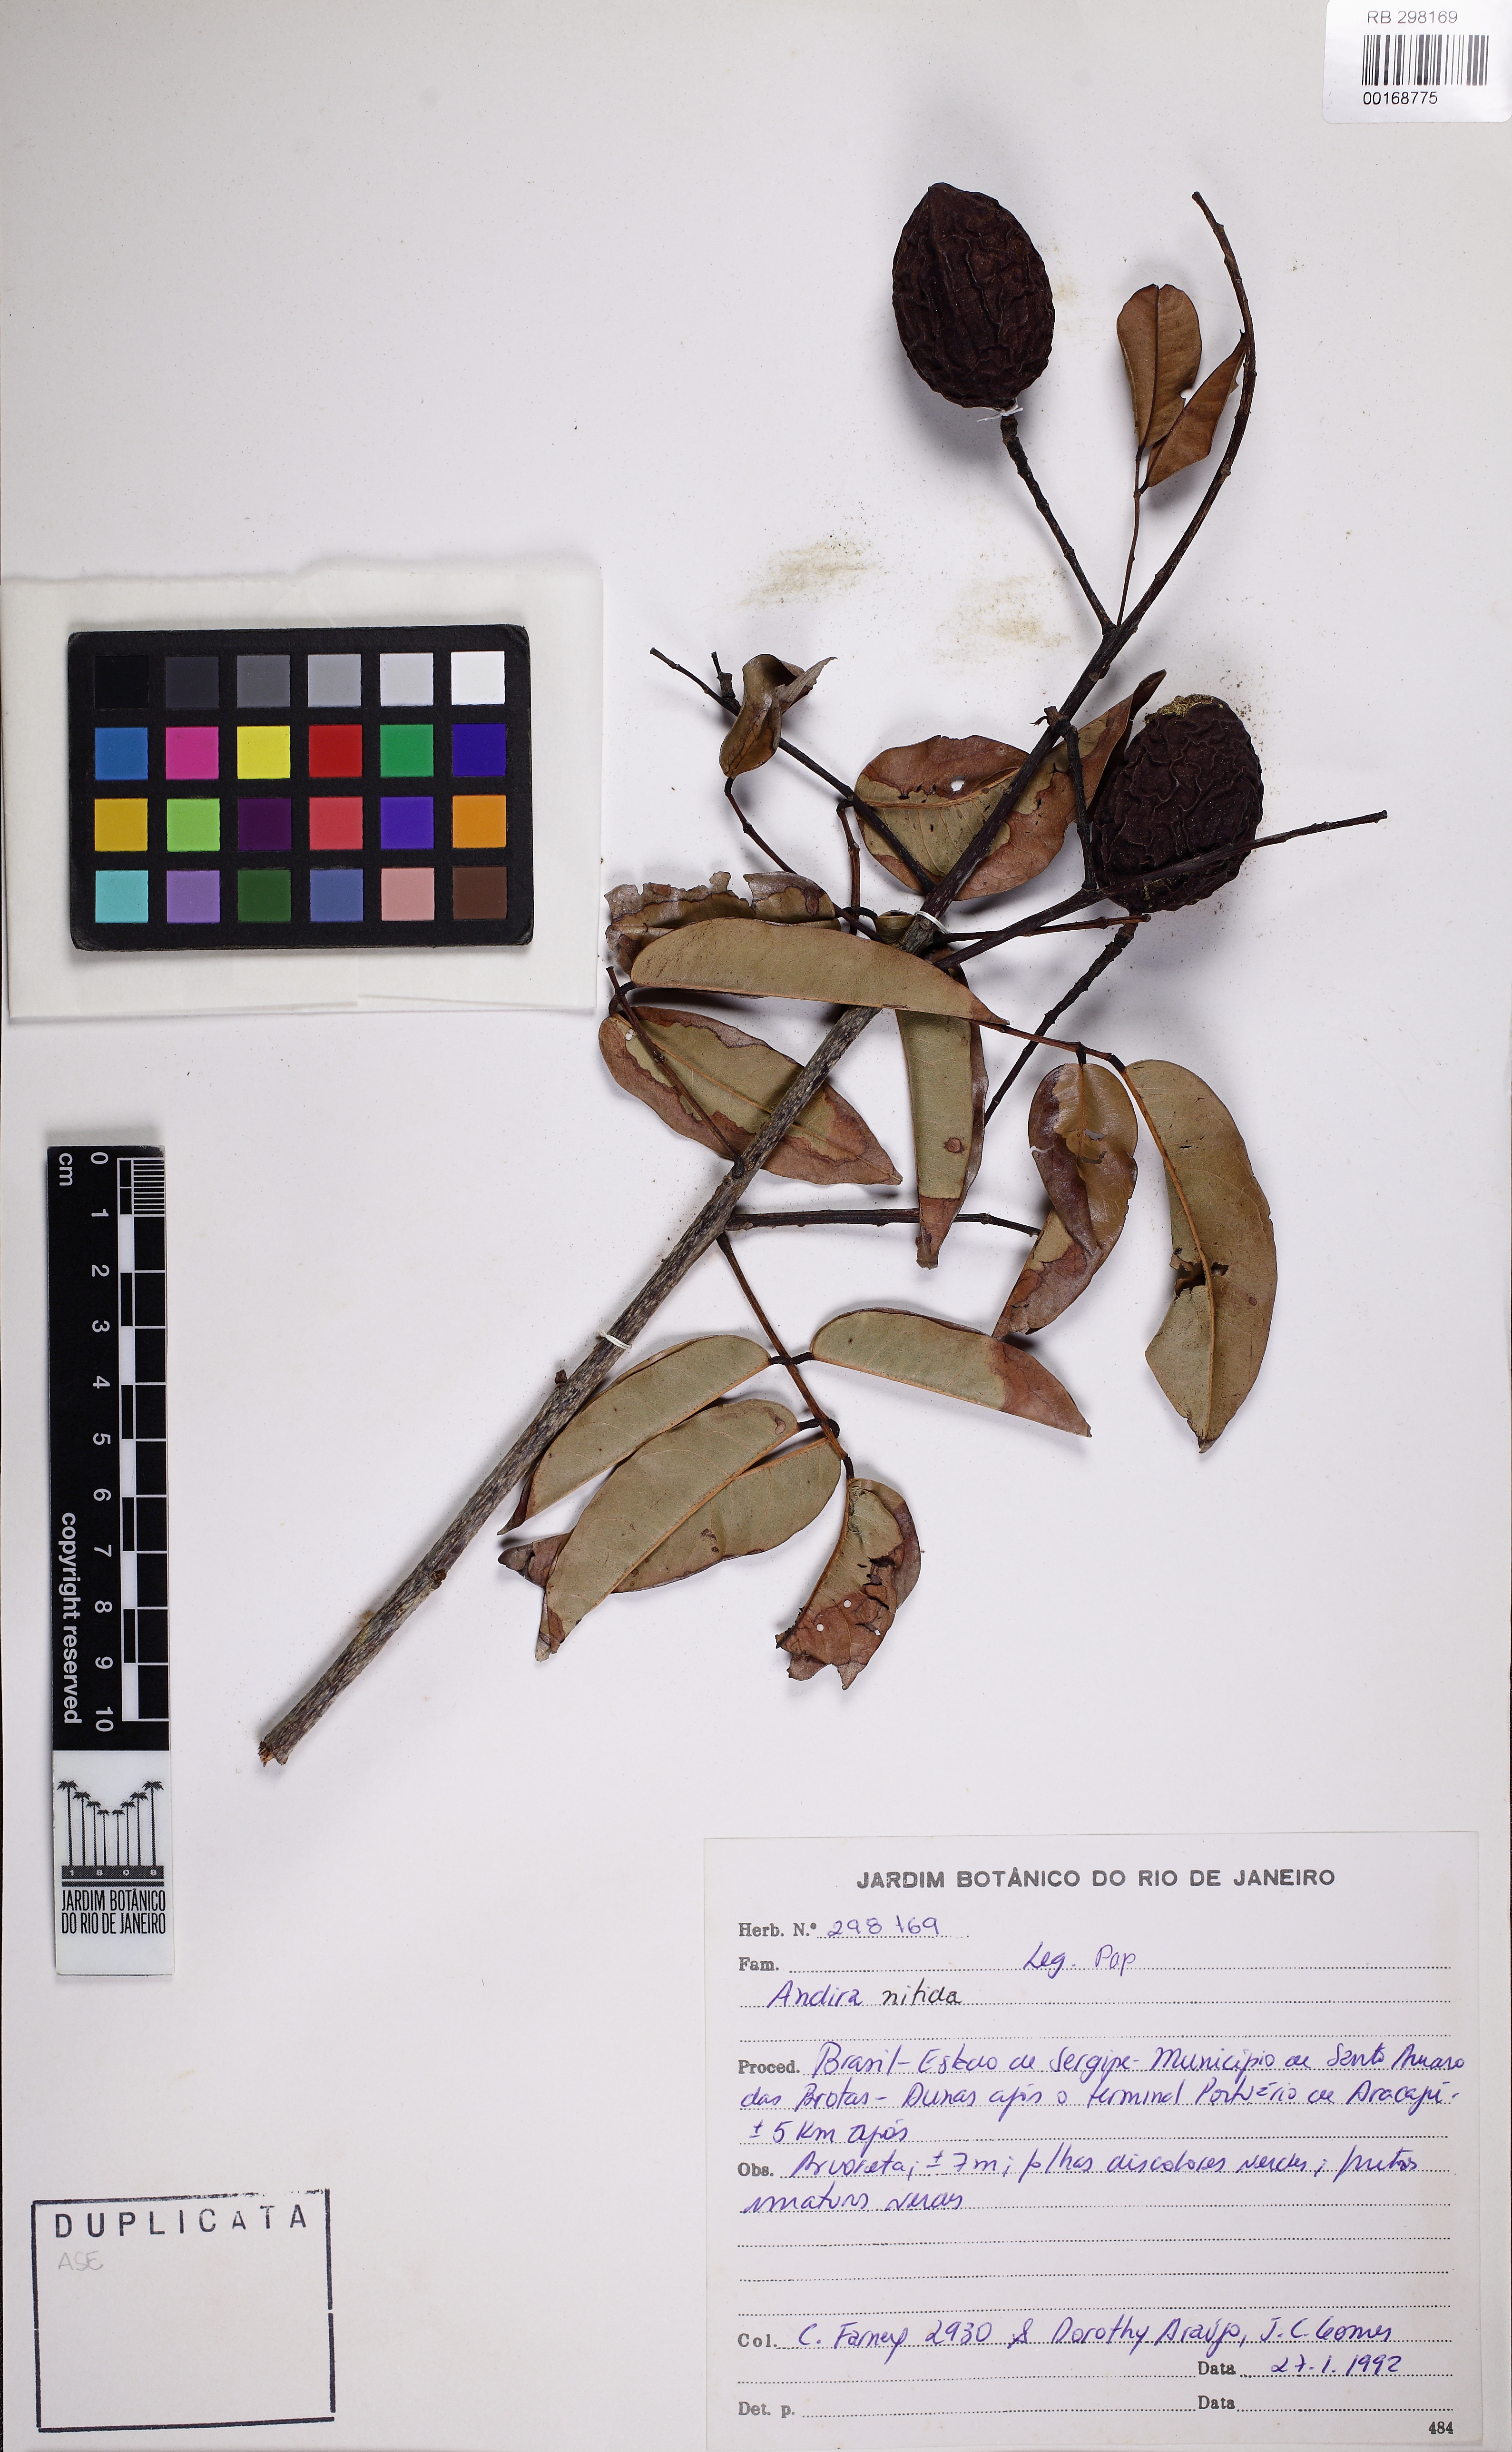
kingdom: Plantae
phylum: Tracheophyta
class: Magnoliopsida
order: Fabales
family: Fabaceae
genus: Andira
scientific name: Andira nitida
